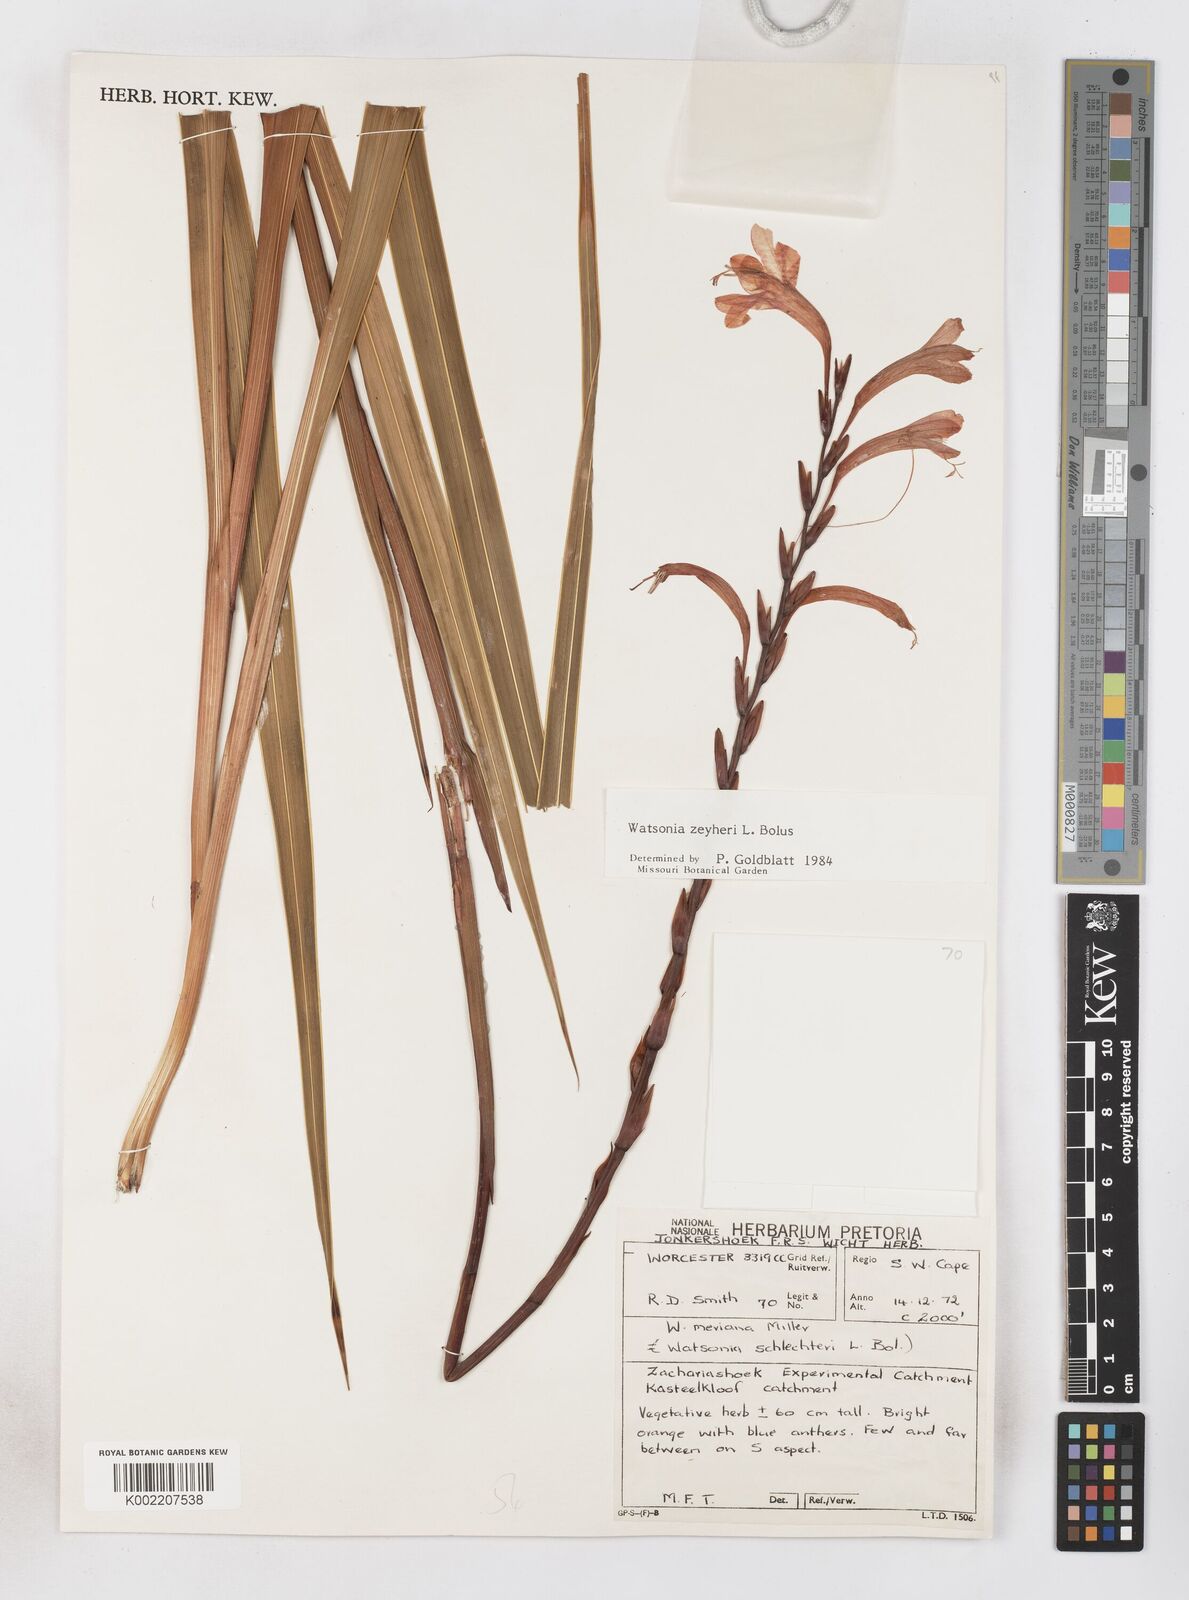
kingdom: Plantae
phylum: Tracheophyta
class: Liliopsida
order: Asparagales
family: Iridaceae
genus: Watsonia
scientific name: Watsonia zeyheri
